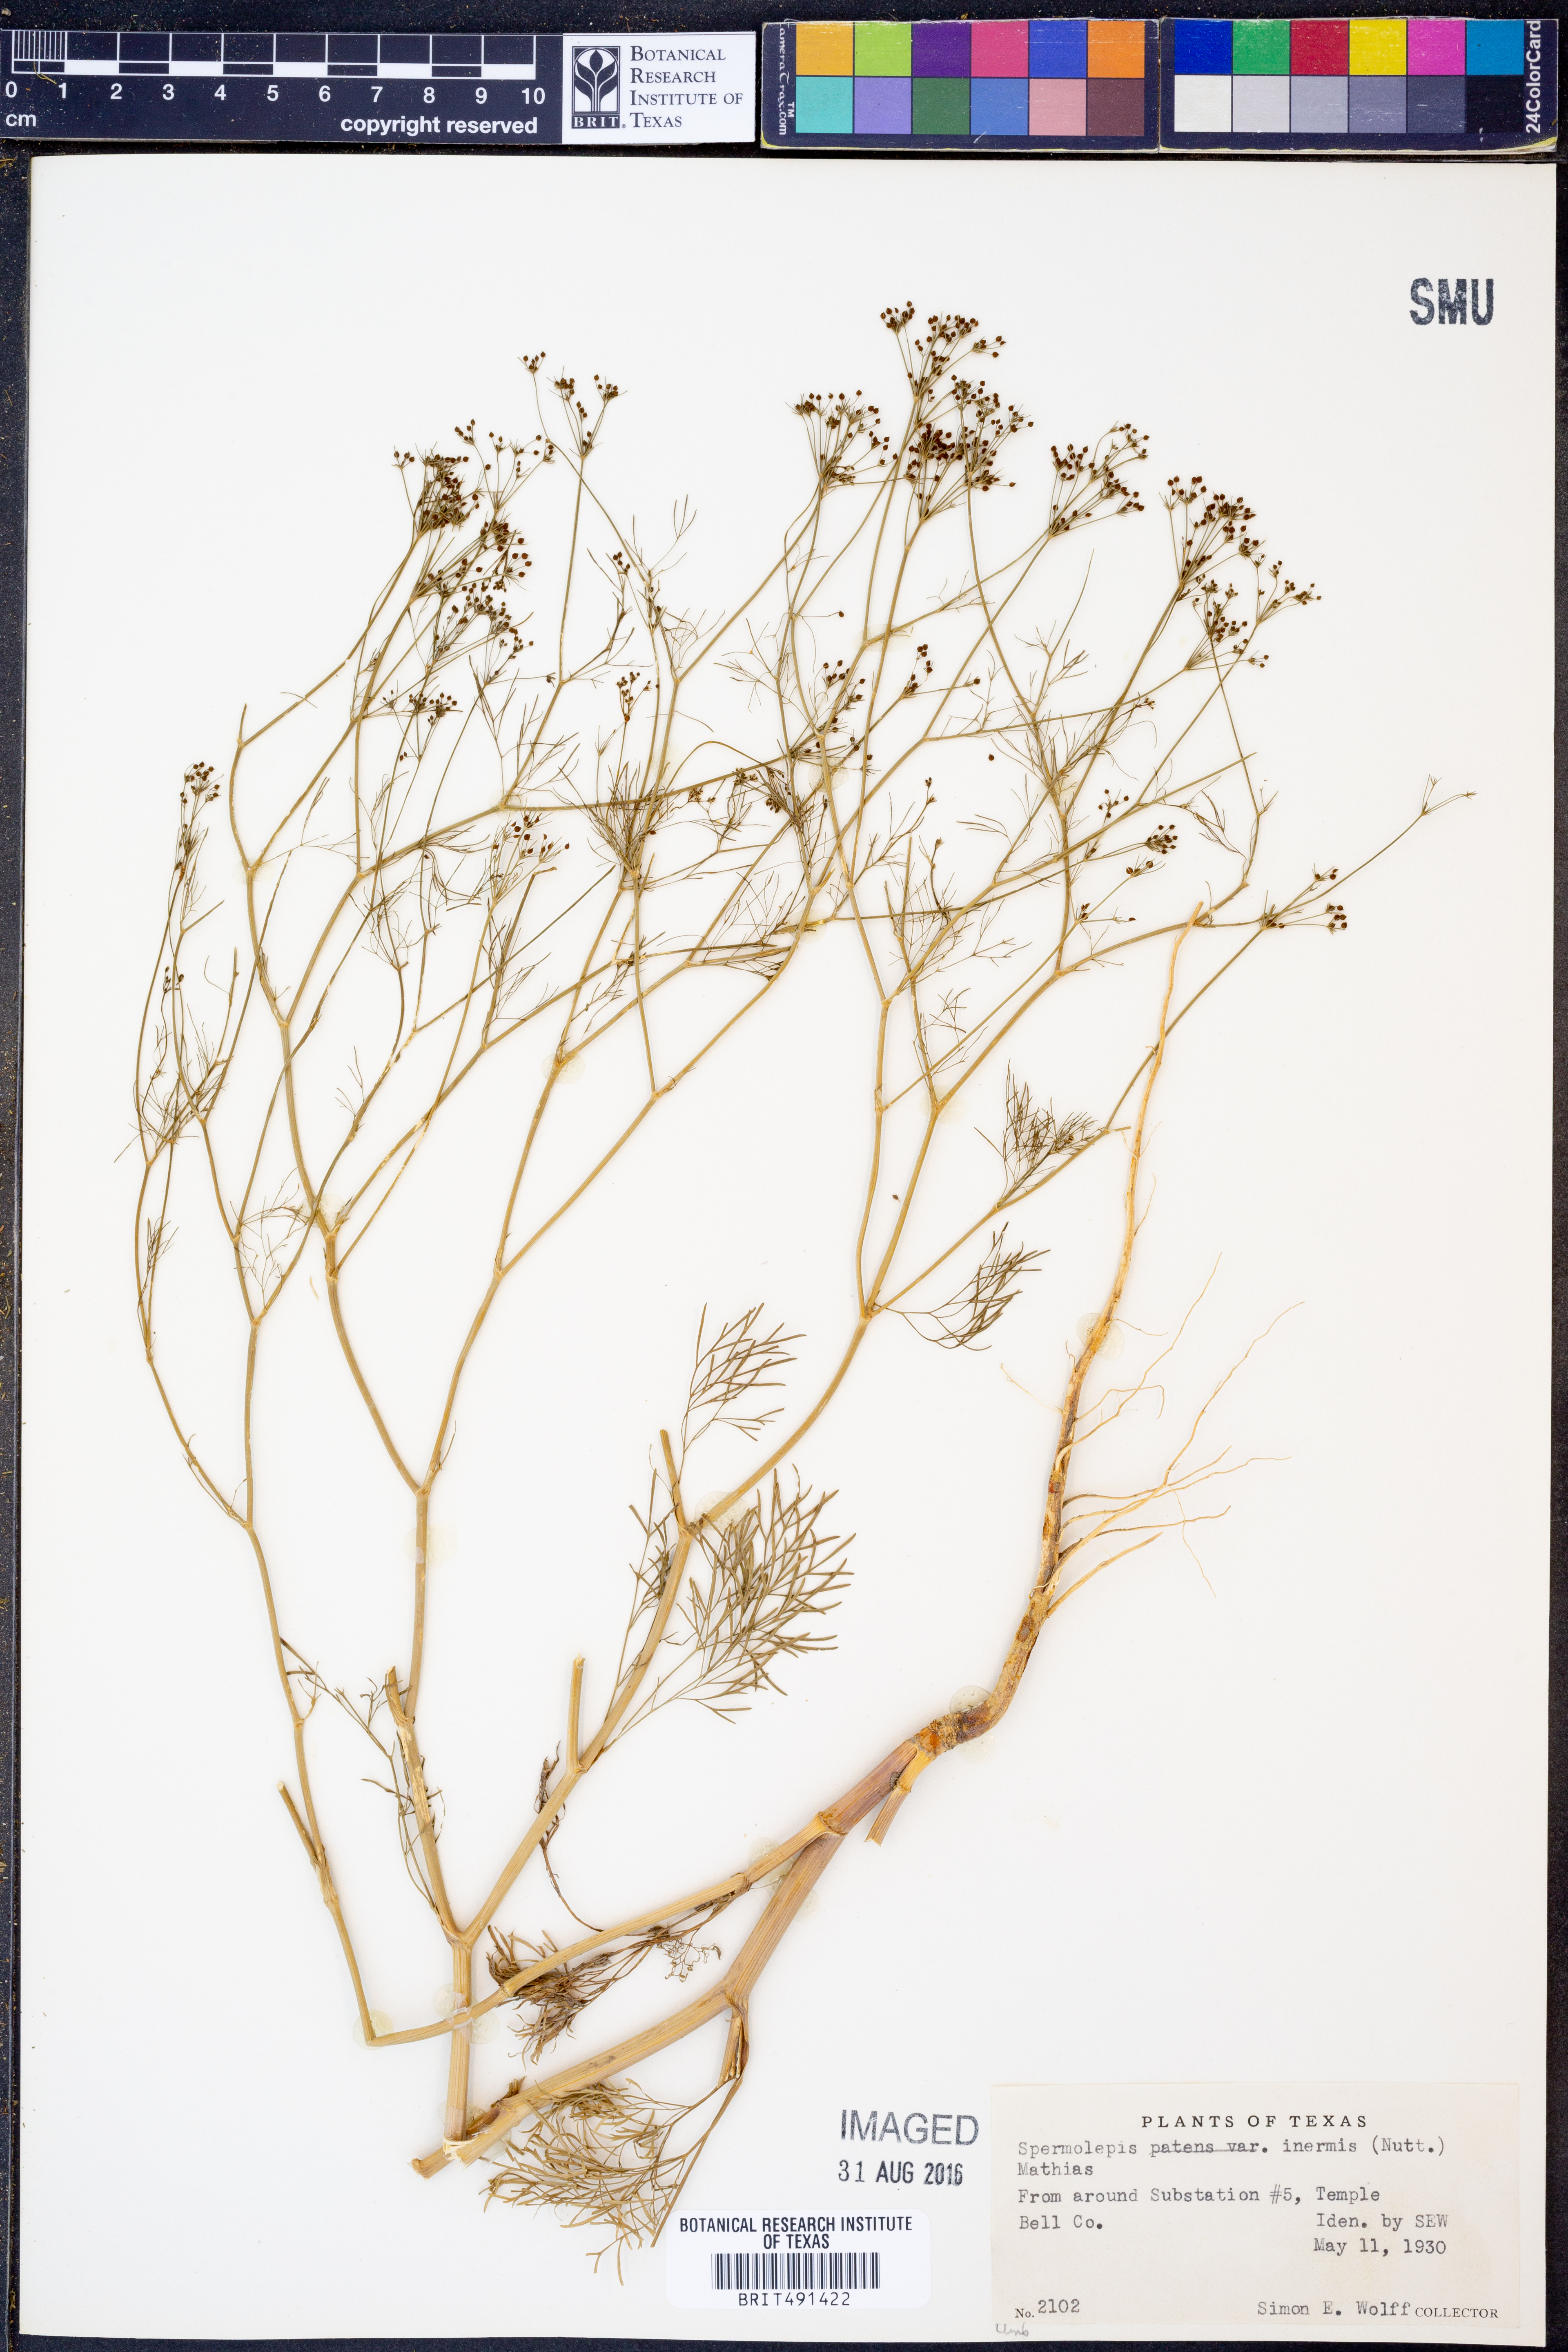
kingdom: Plantae
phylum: Tracheophyta
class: Magnoliopsida
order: Apiales
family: Apiaceae
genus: Spermolepis
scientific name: Spermolepis inermis
